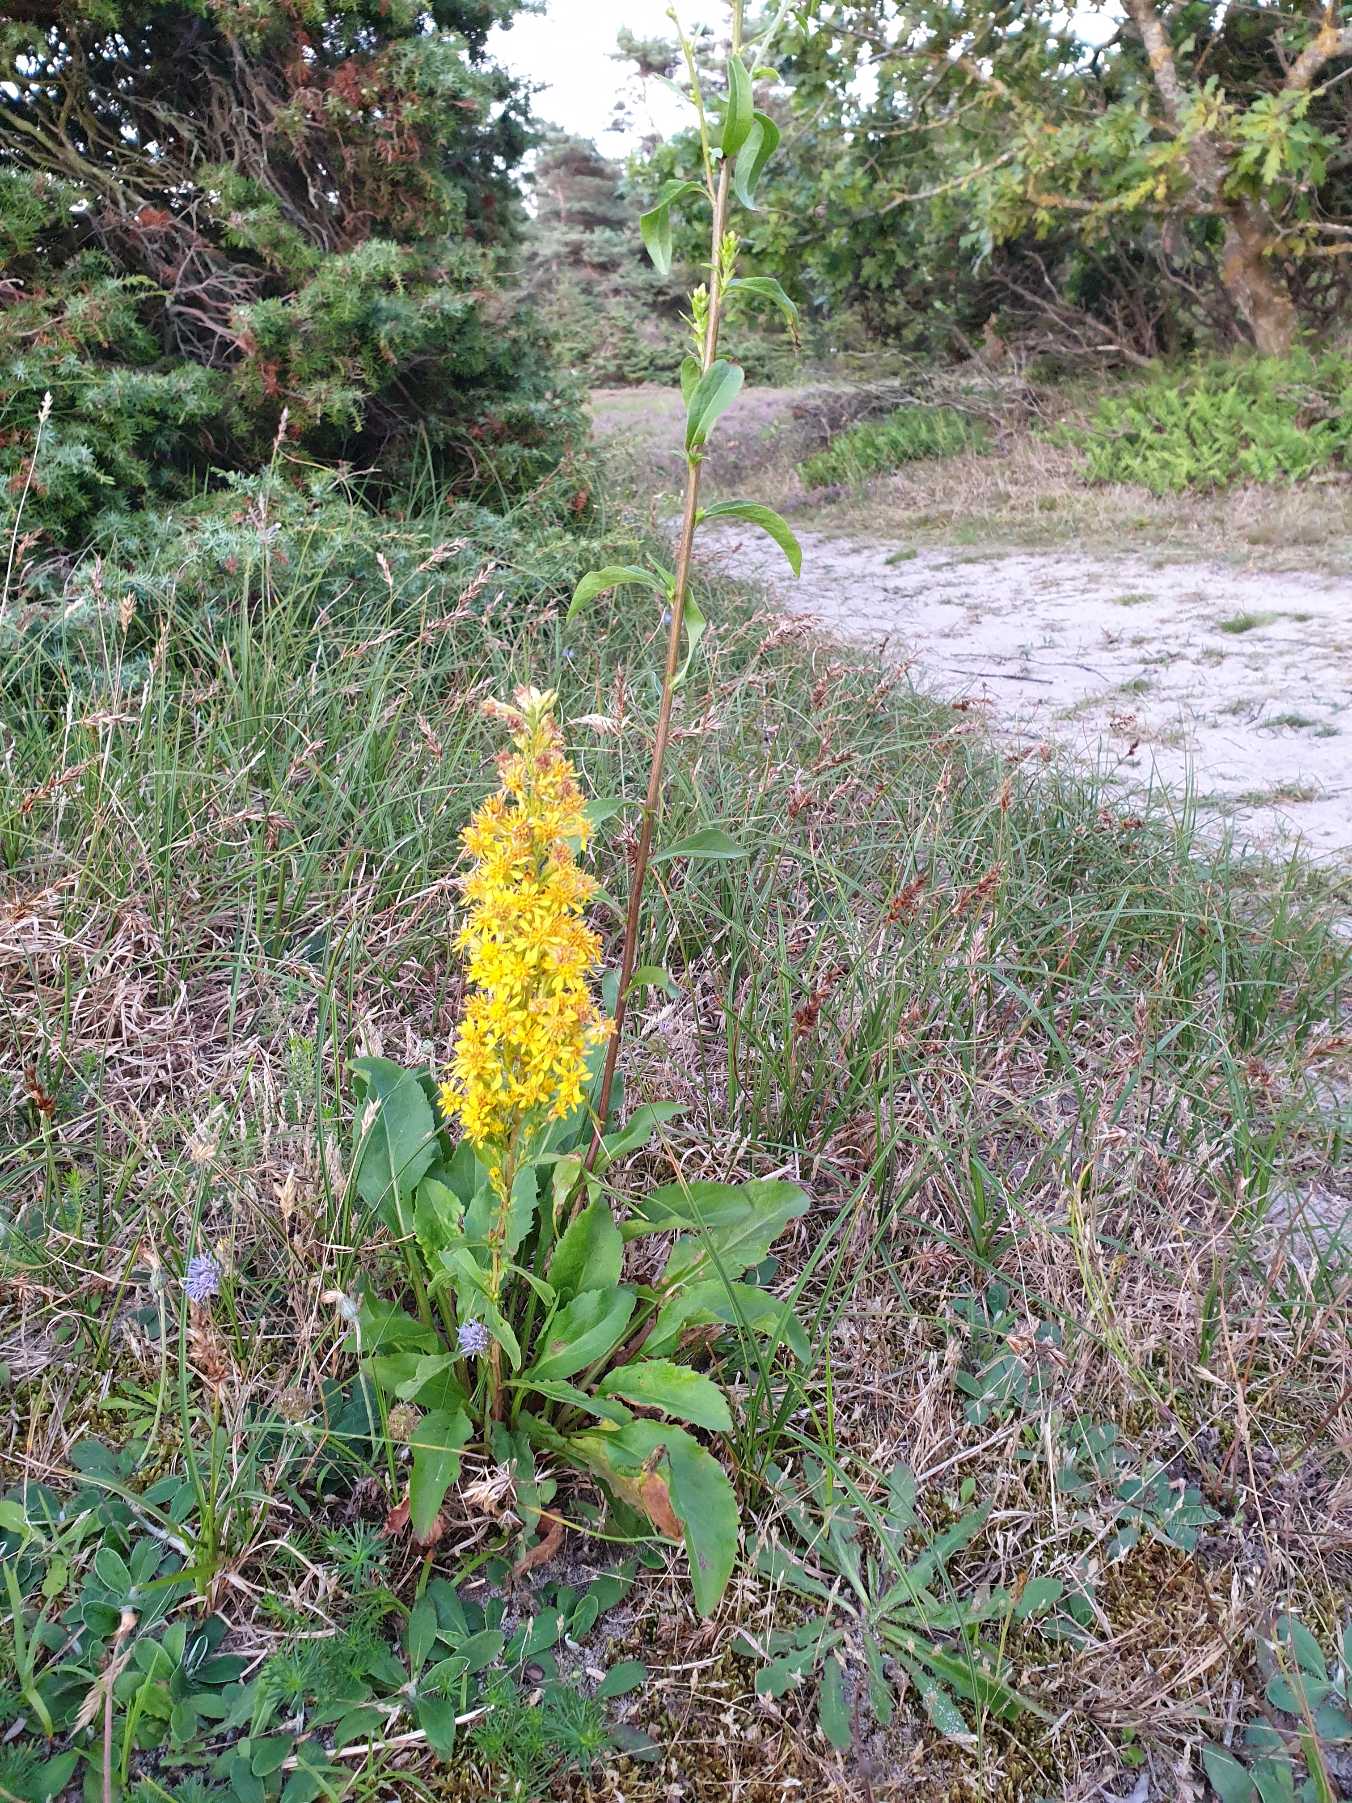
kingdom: Plantae
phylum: Tracheophyta
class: Magnoliopsida
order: Asterales
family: Asteraceae
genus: Solidago
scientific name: Solidago virgaurea
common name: Almindelig gyldenris
